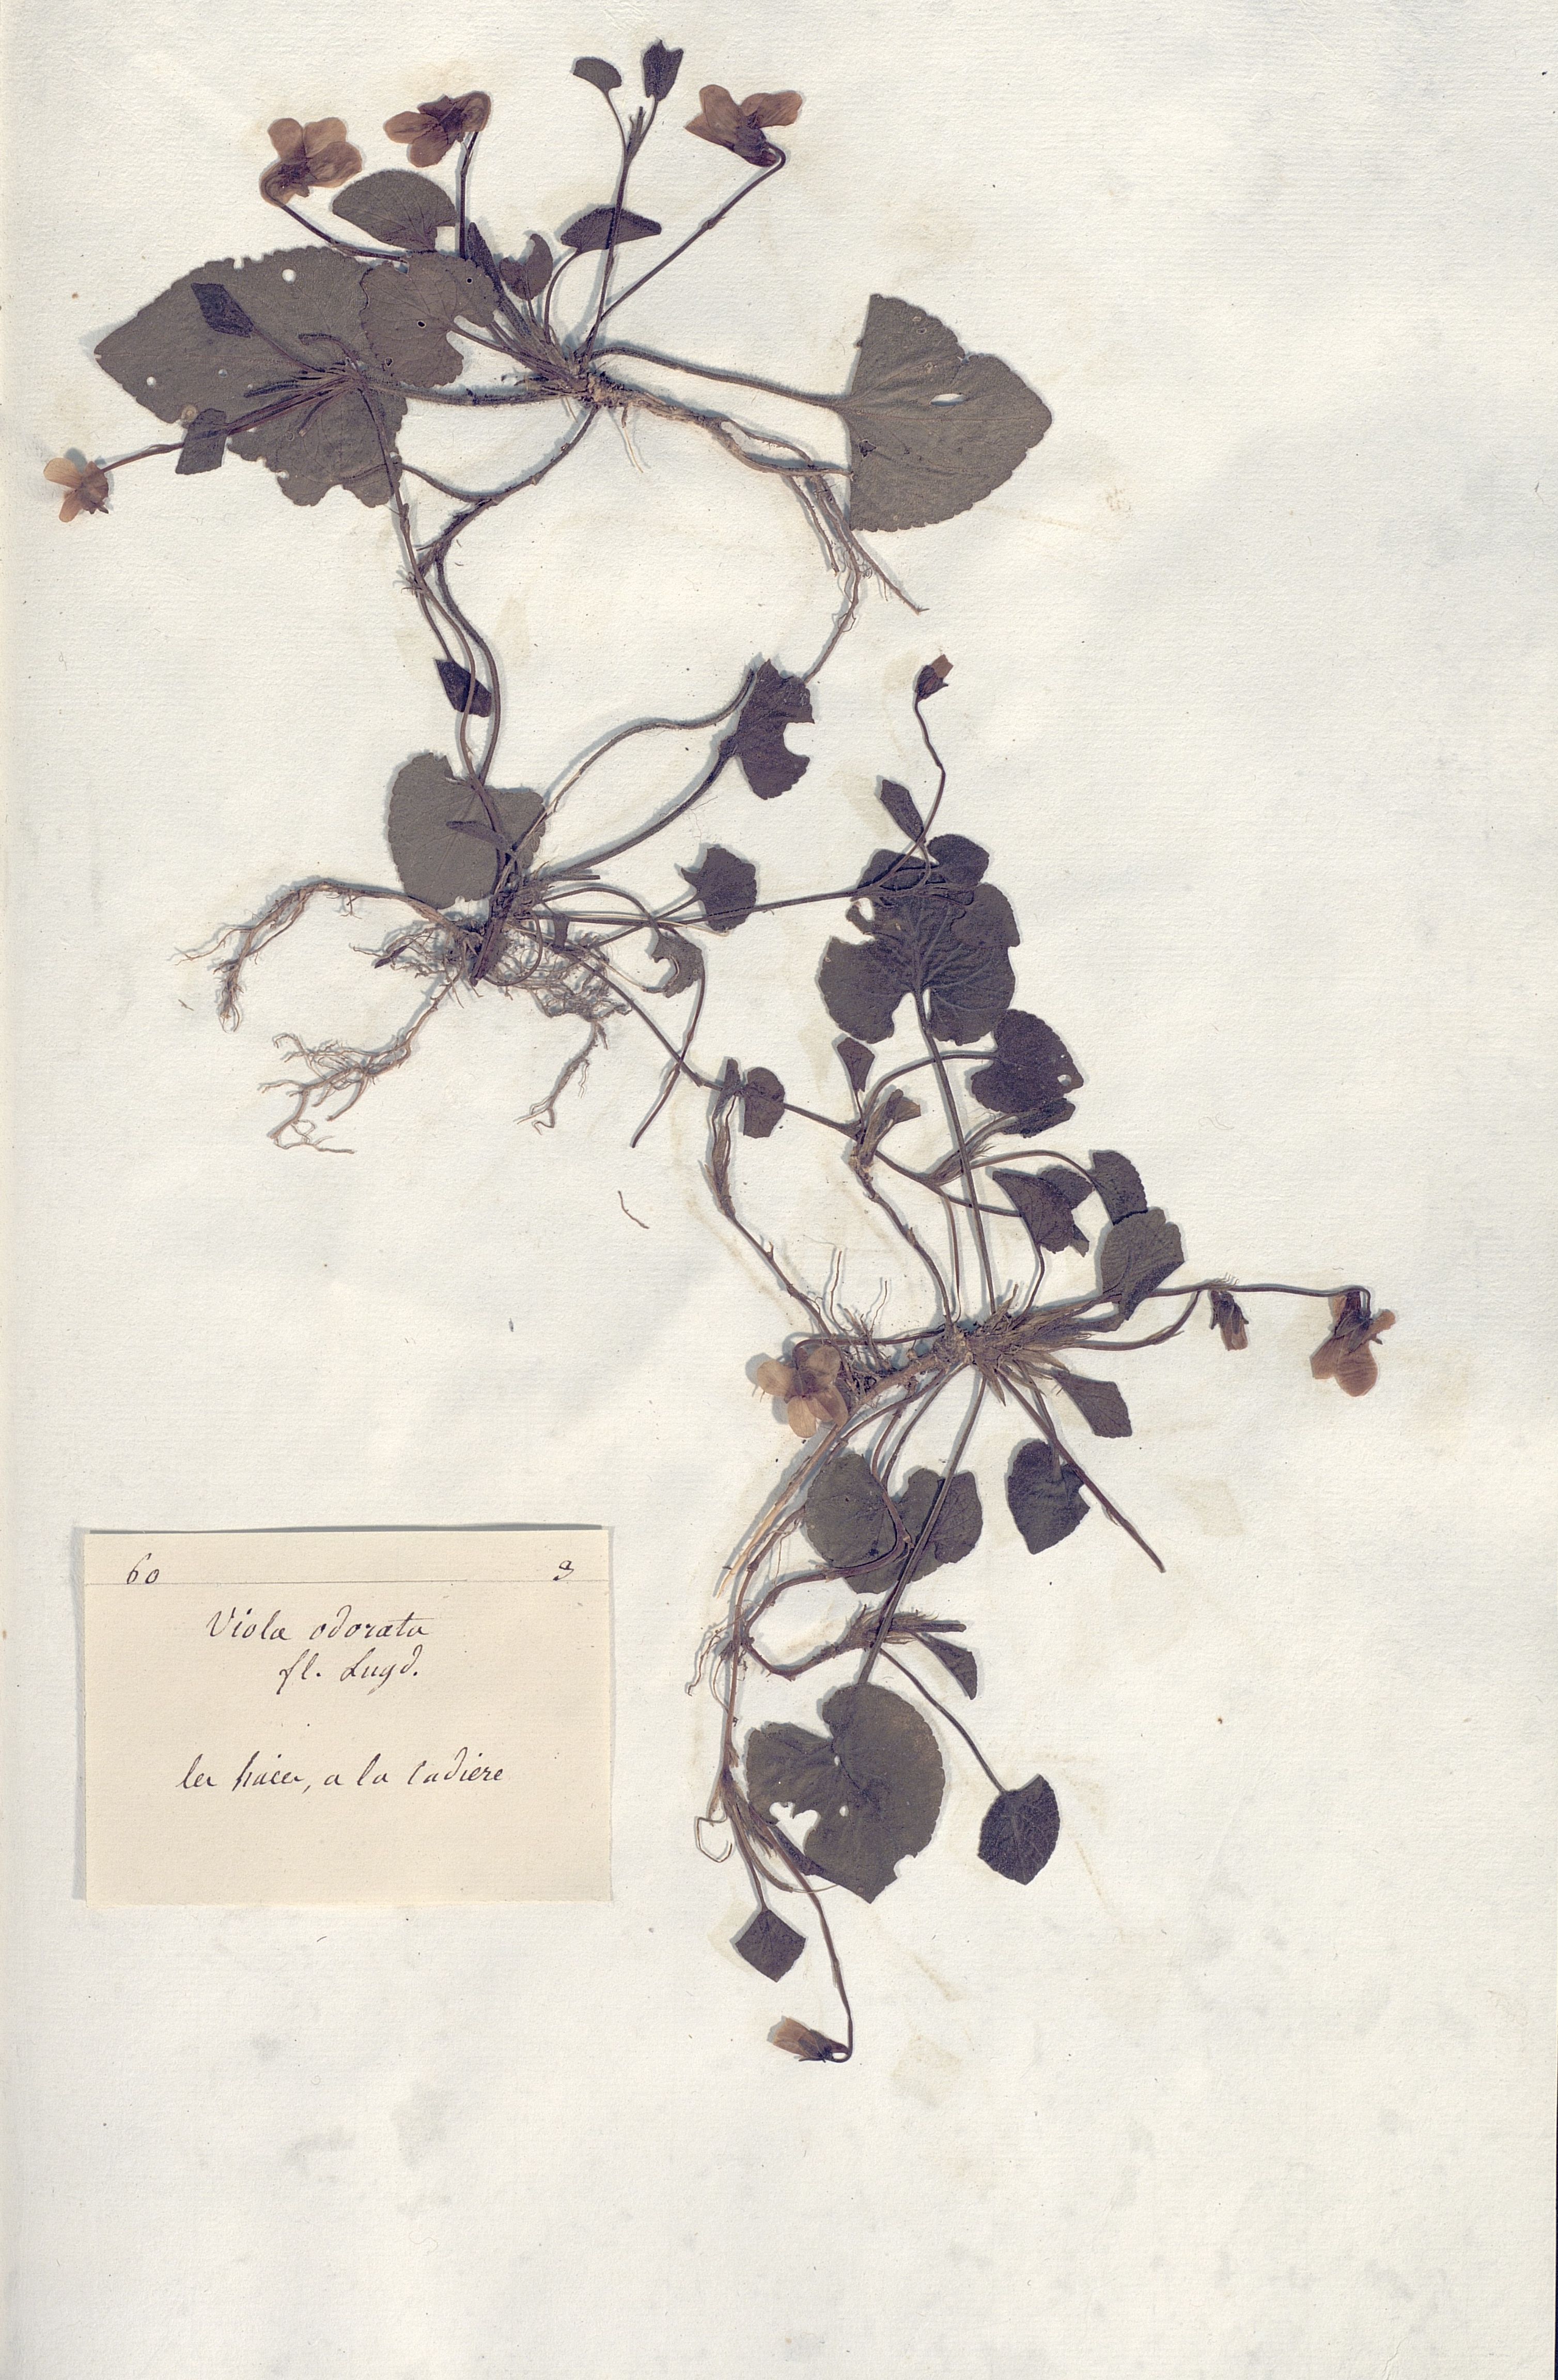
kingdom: Plantae
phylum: Tracheophyta
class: Magnoliopsida
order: Malpighiales
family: Violaceae
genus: Viola
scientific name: Viola odorata
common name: Sweet violet
